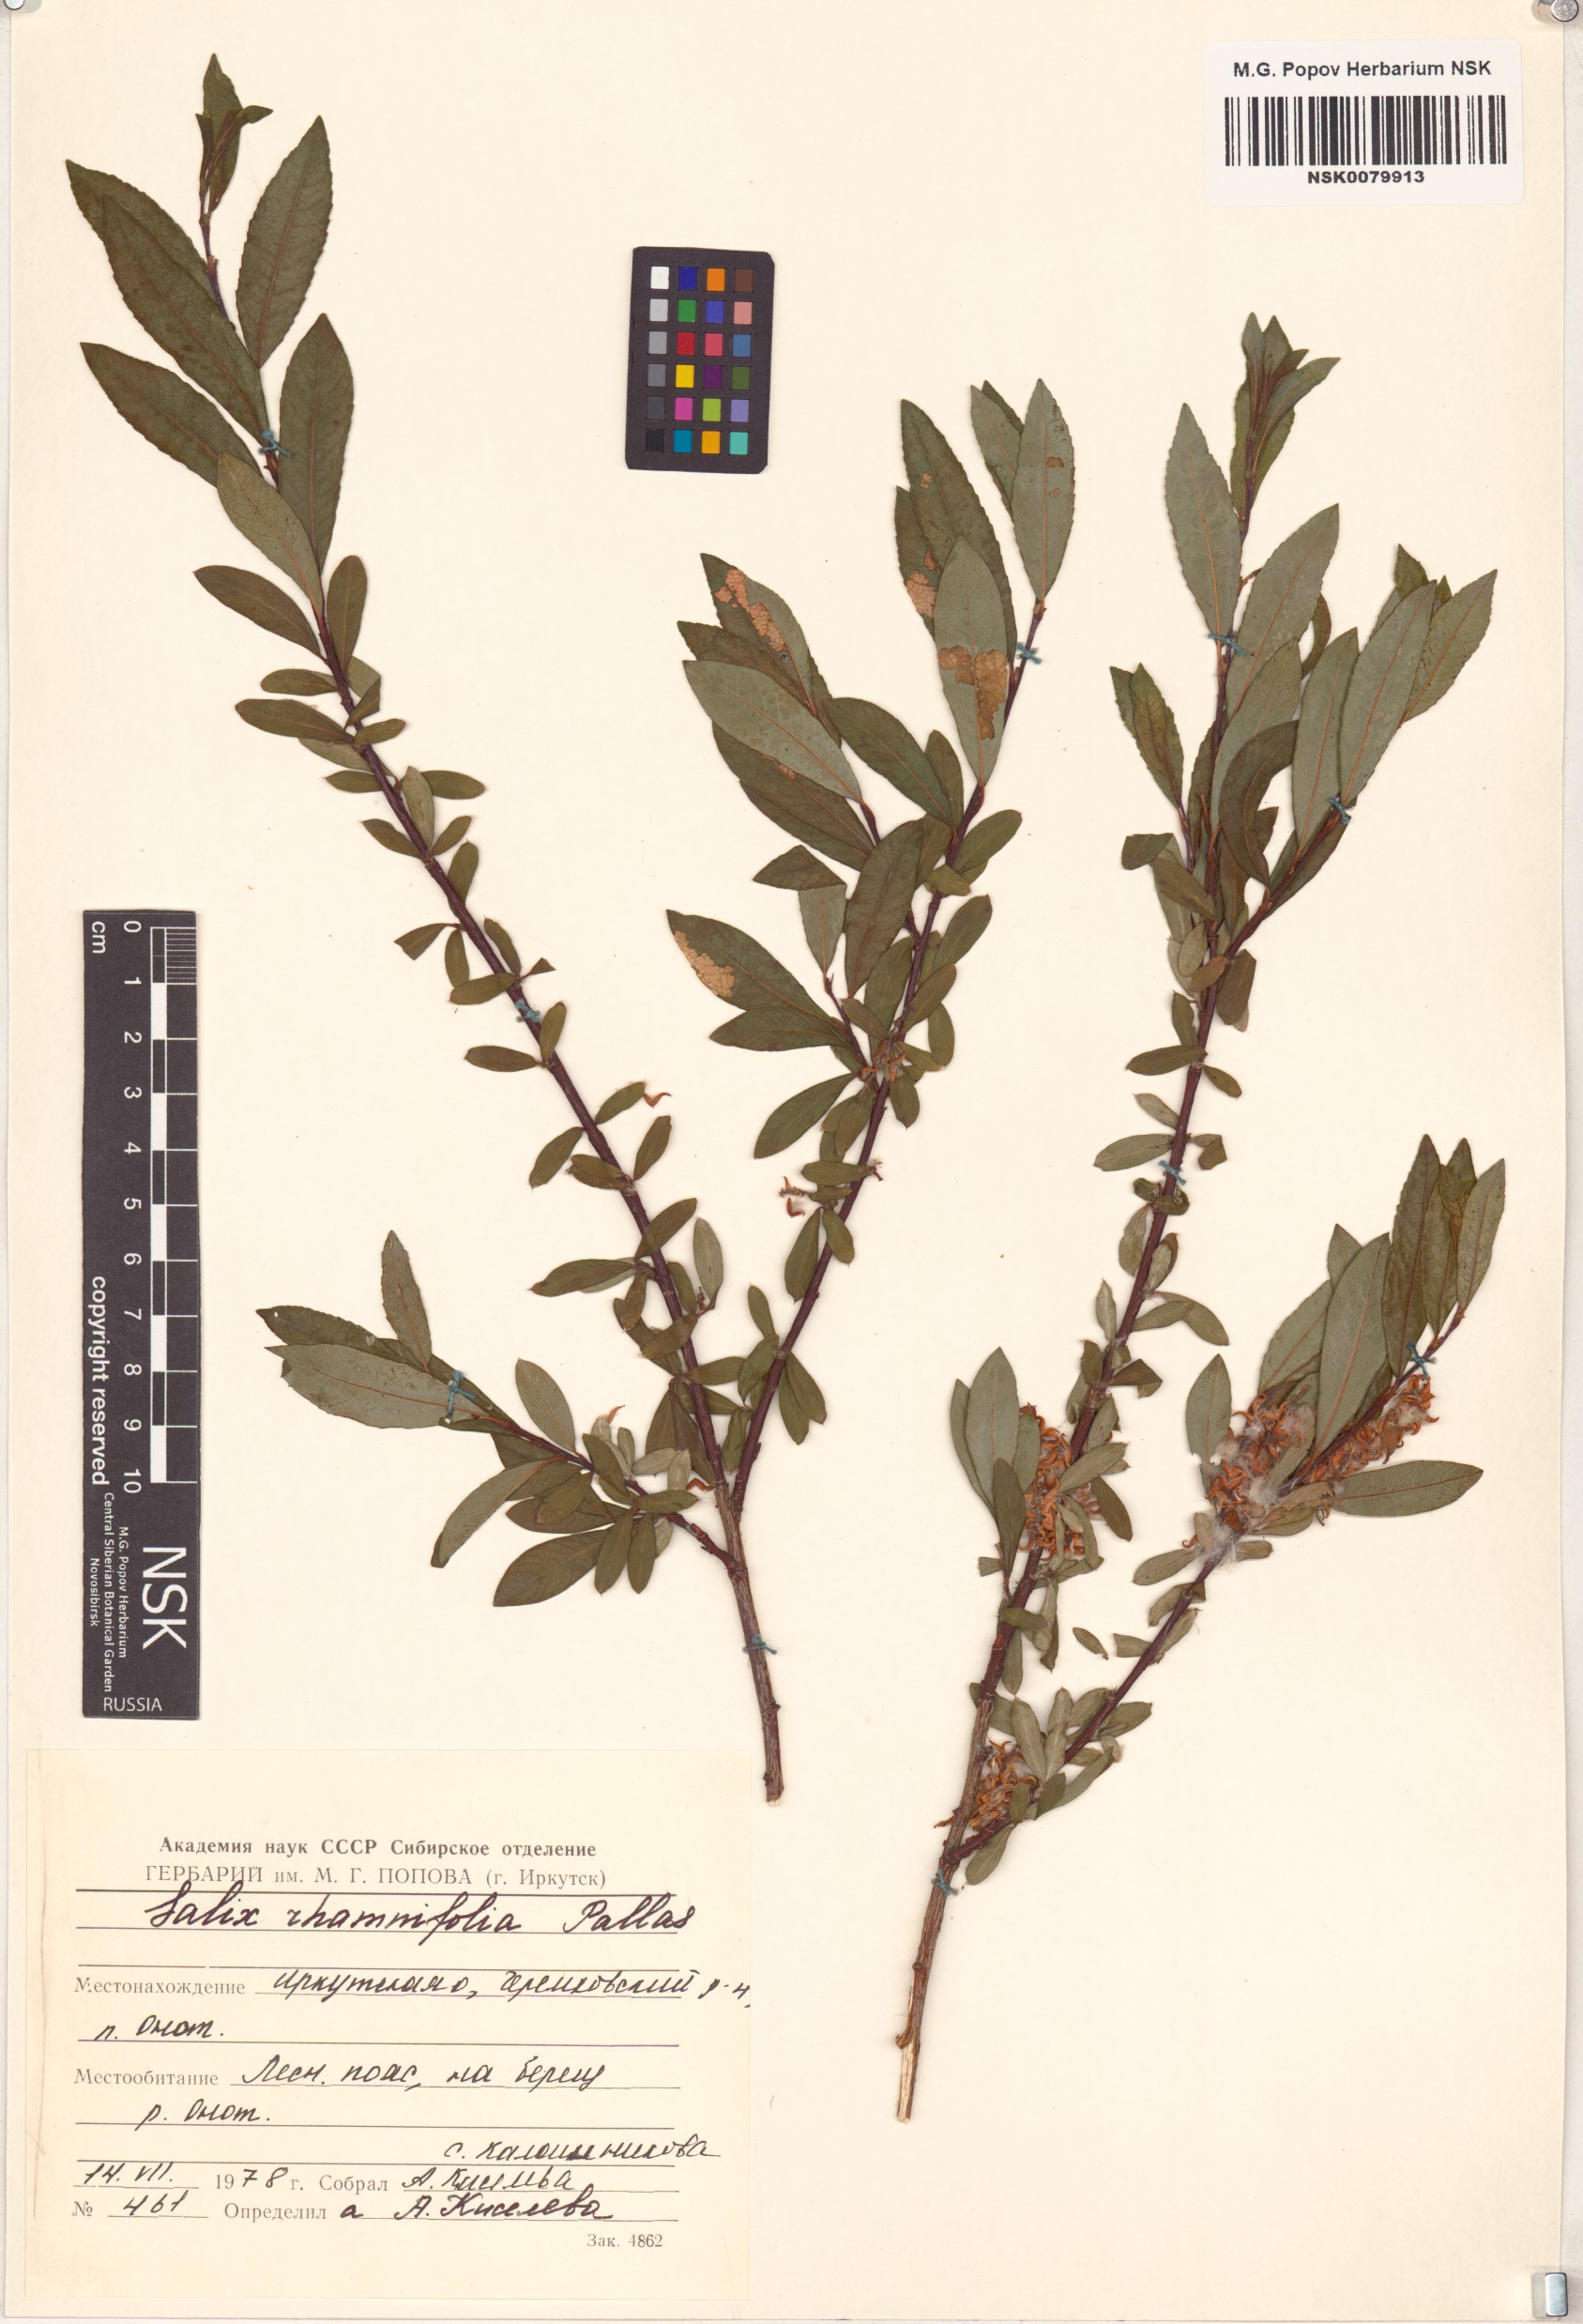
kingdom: Plantae
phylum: Tracheophyta
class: Magnoliopsida
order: Malpighiales
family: Salicaceae
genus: Salix
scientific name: Salix rhamnifolia
